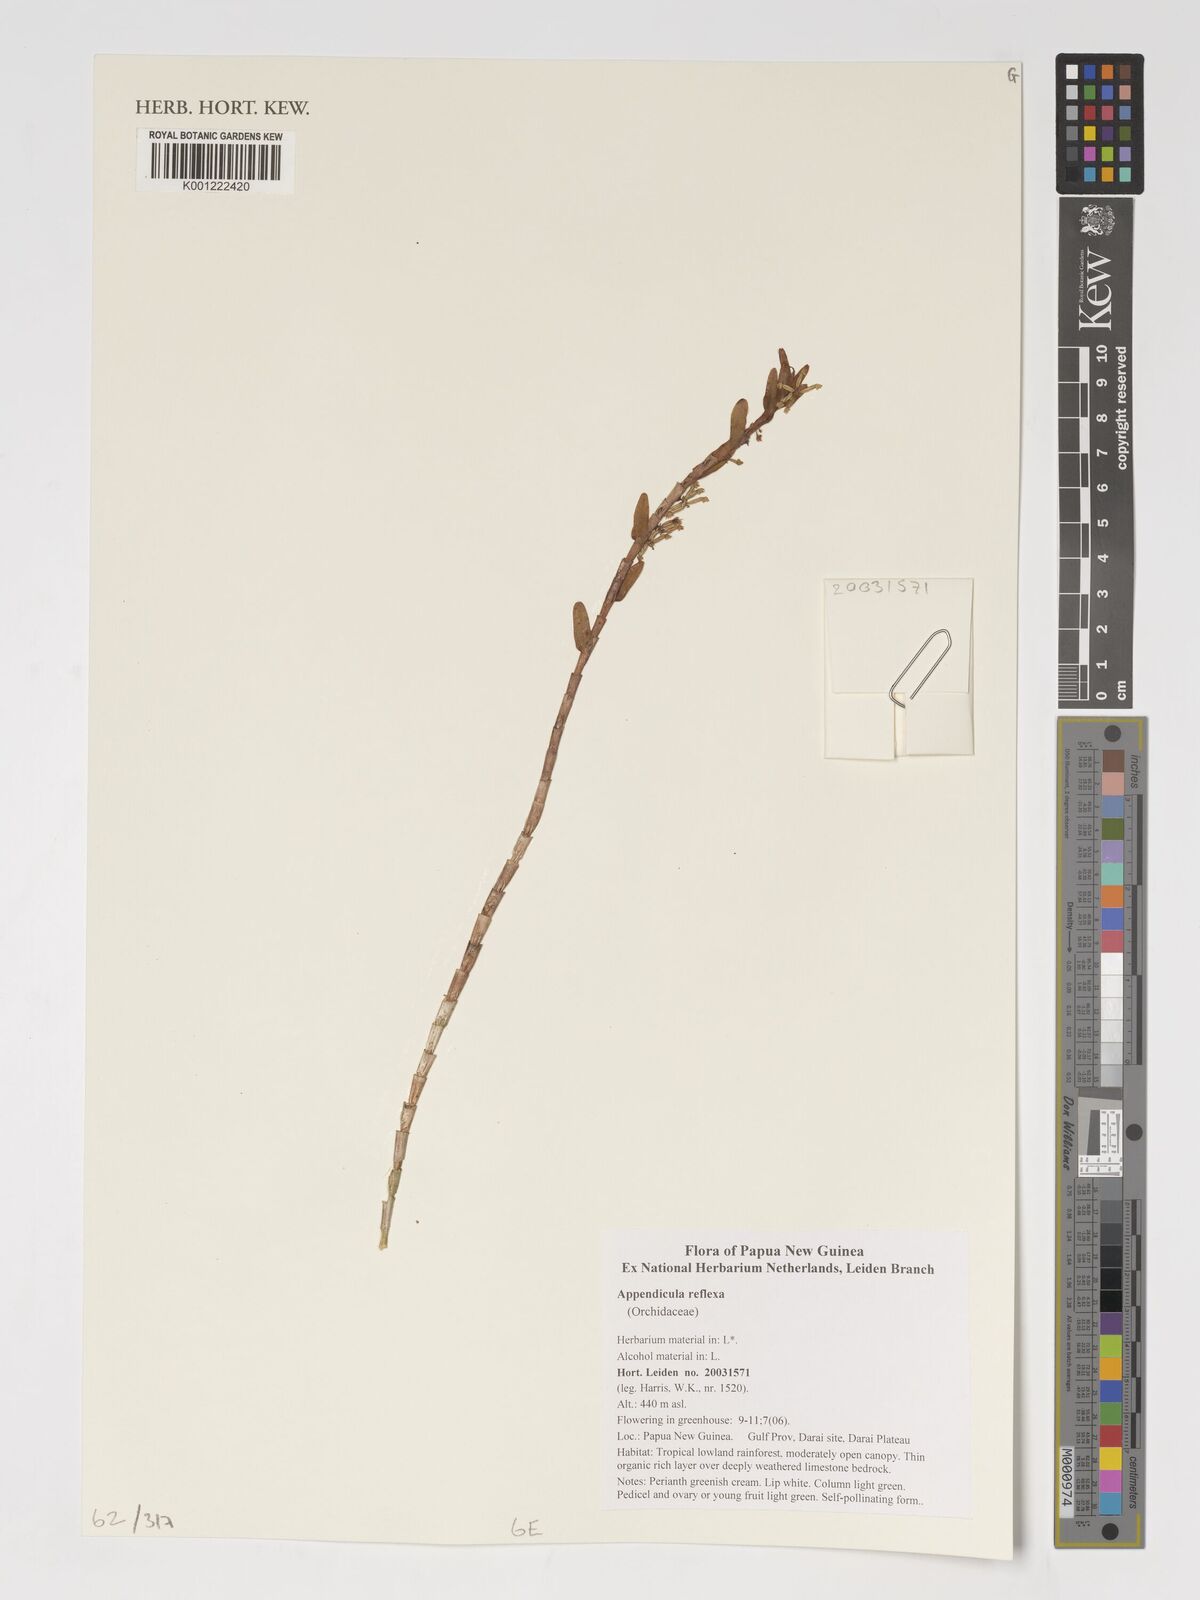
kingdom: Plantae
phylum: Tracheophyta
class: Liliopsida
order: Asparagales
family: Orchidaceae
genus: Appendicula
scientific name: Appendicula reflexa
